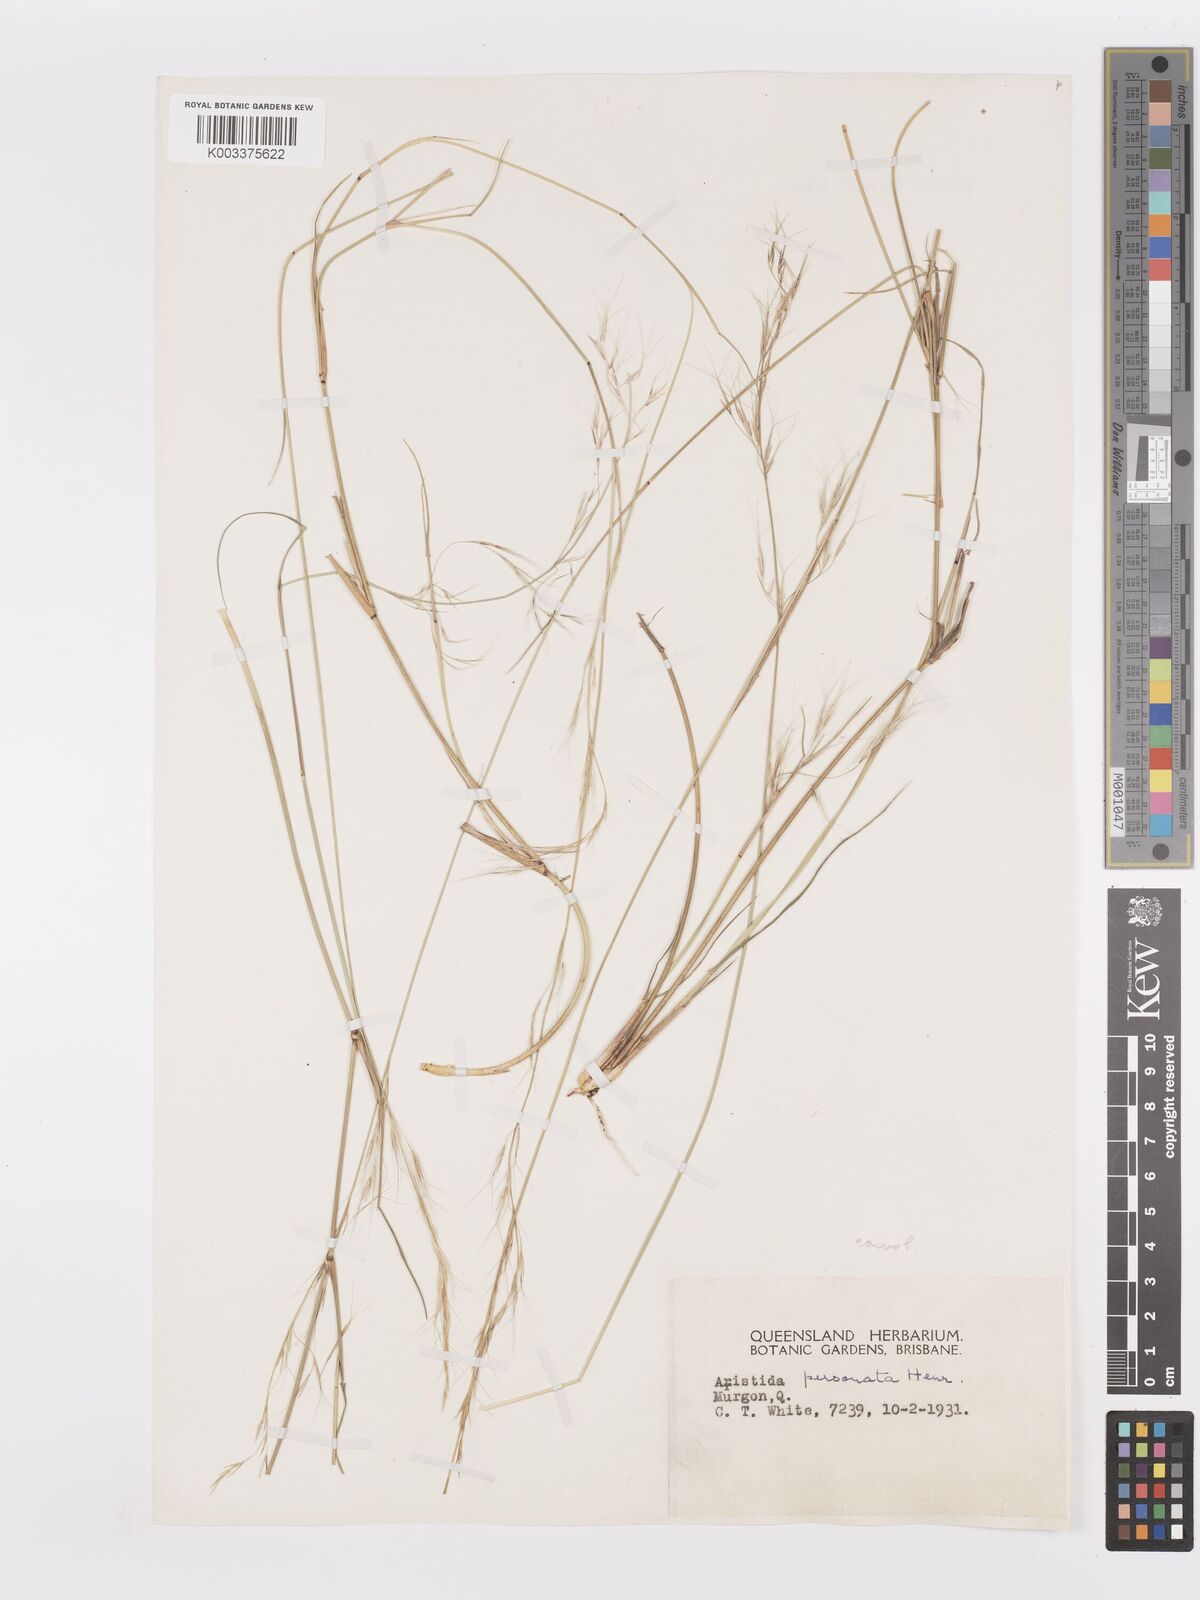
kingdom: Plantae
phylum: Tracheophyta
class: Liliopsida
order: Poales
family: Poaceae
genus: Aristida
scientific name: Aristida personata
